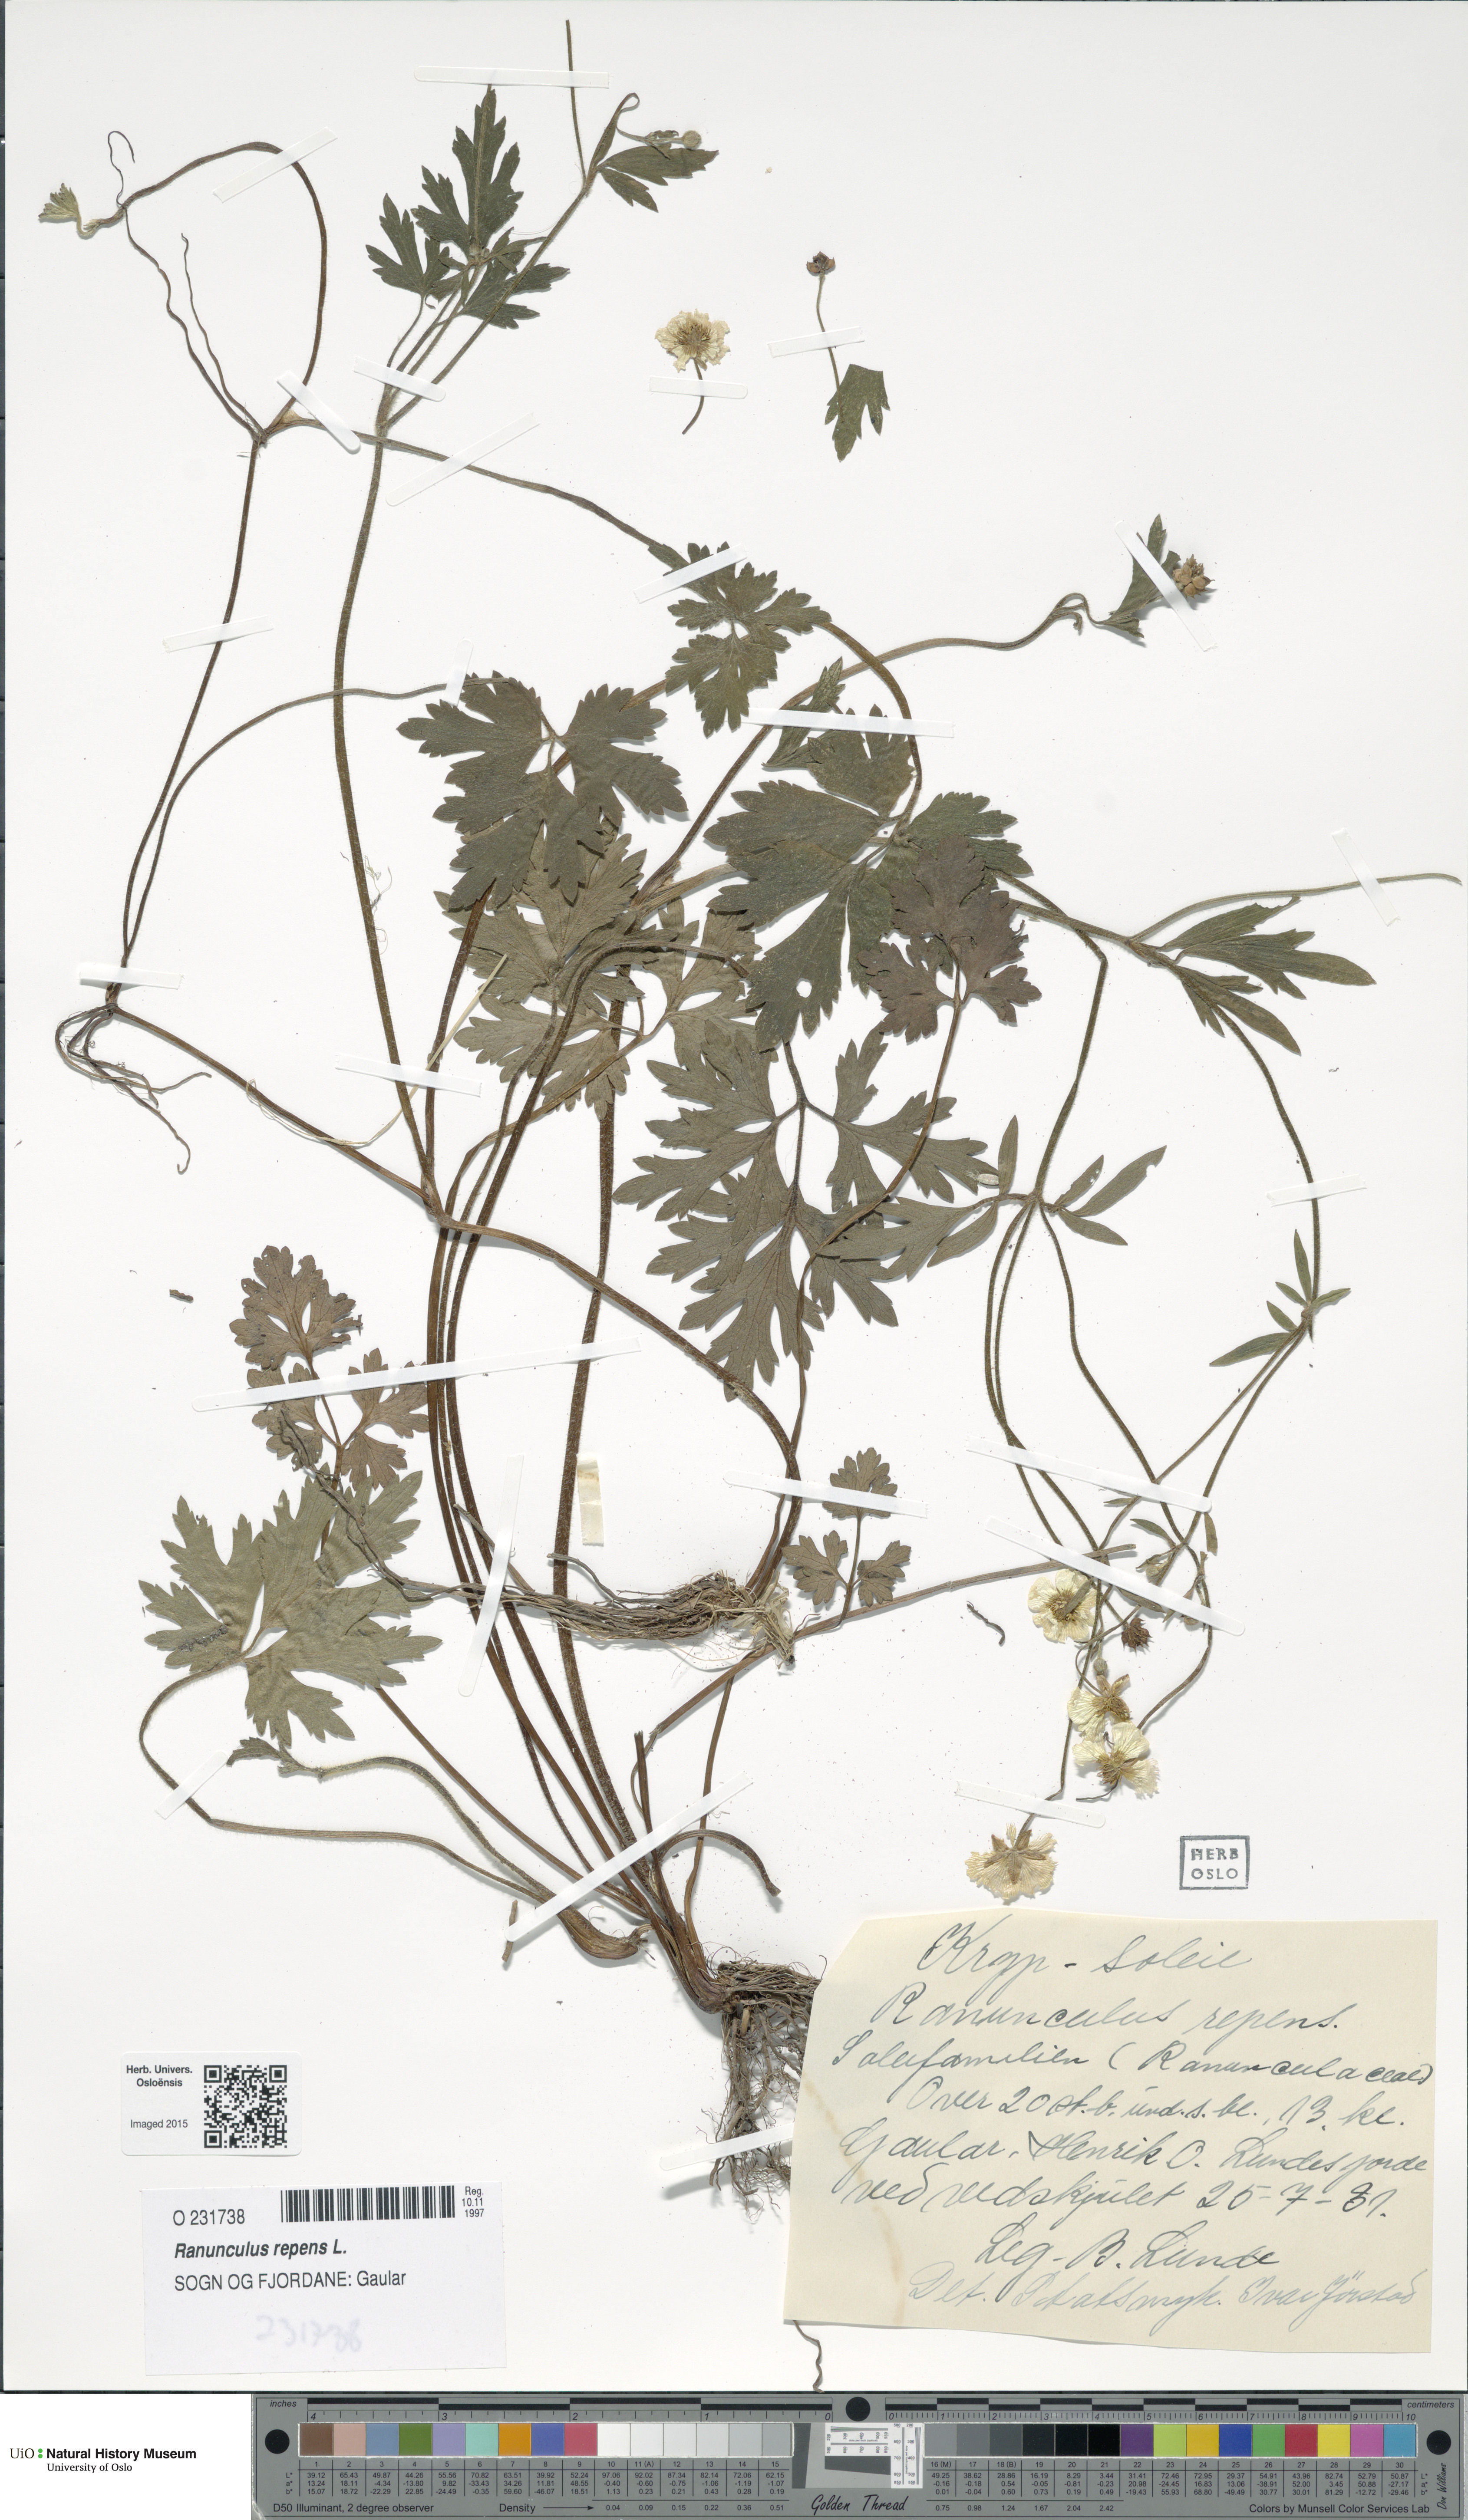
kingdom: Plantae
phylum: Tracheophyta
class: Magnoliopsida
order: Ranunculales
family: Ranunculaceae
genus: Ranunculus
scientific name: Ranunculus repens
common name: Creeping buttercup
